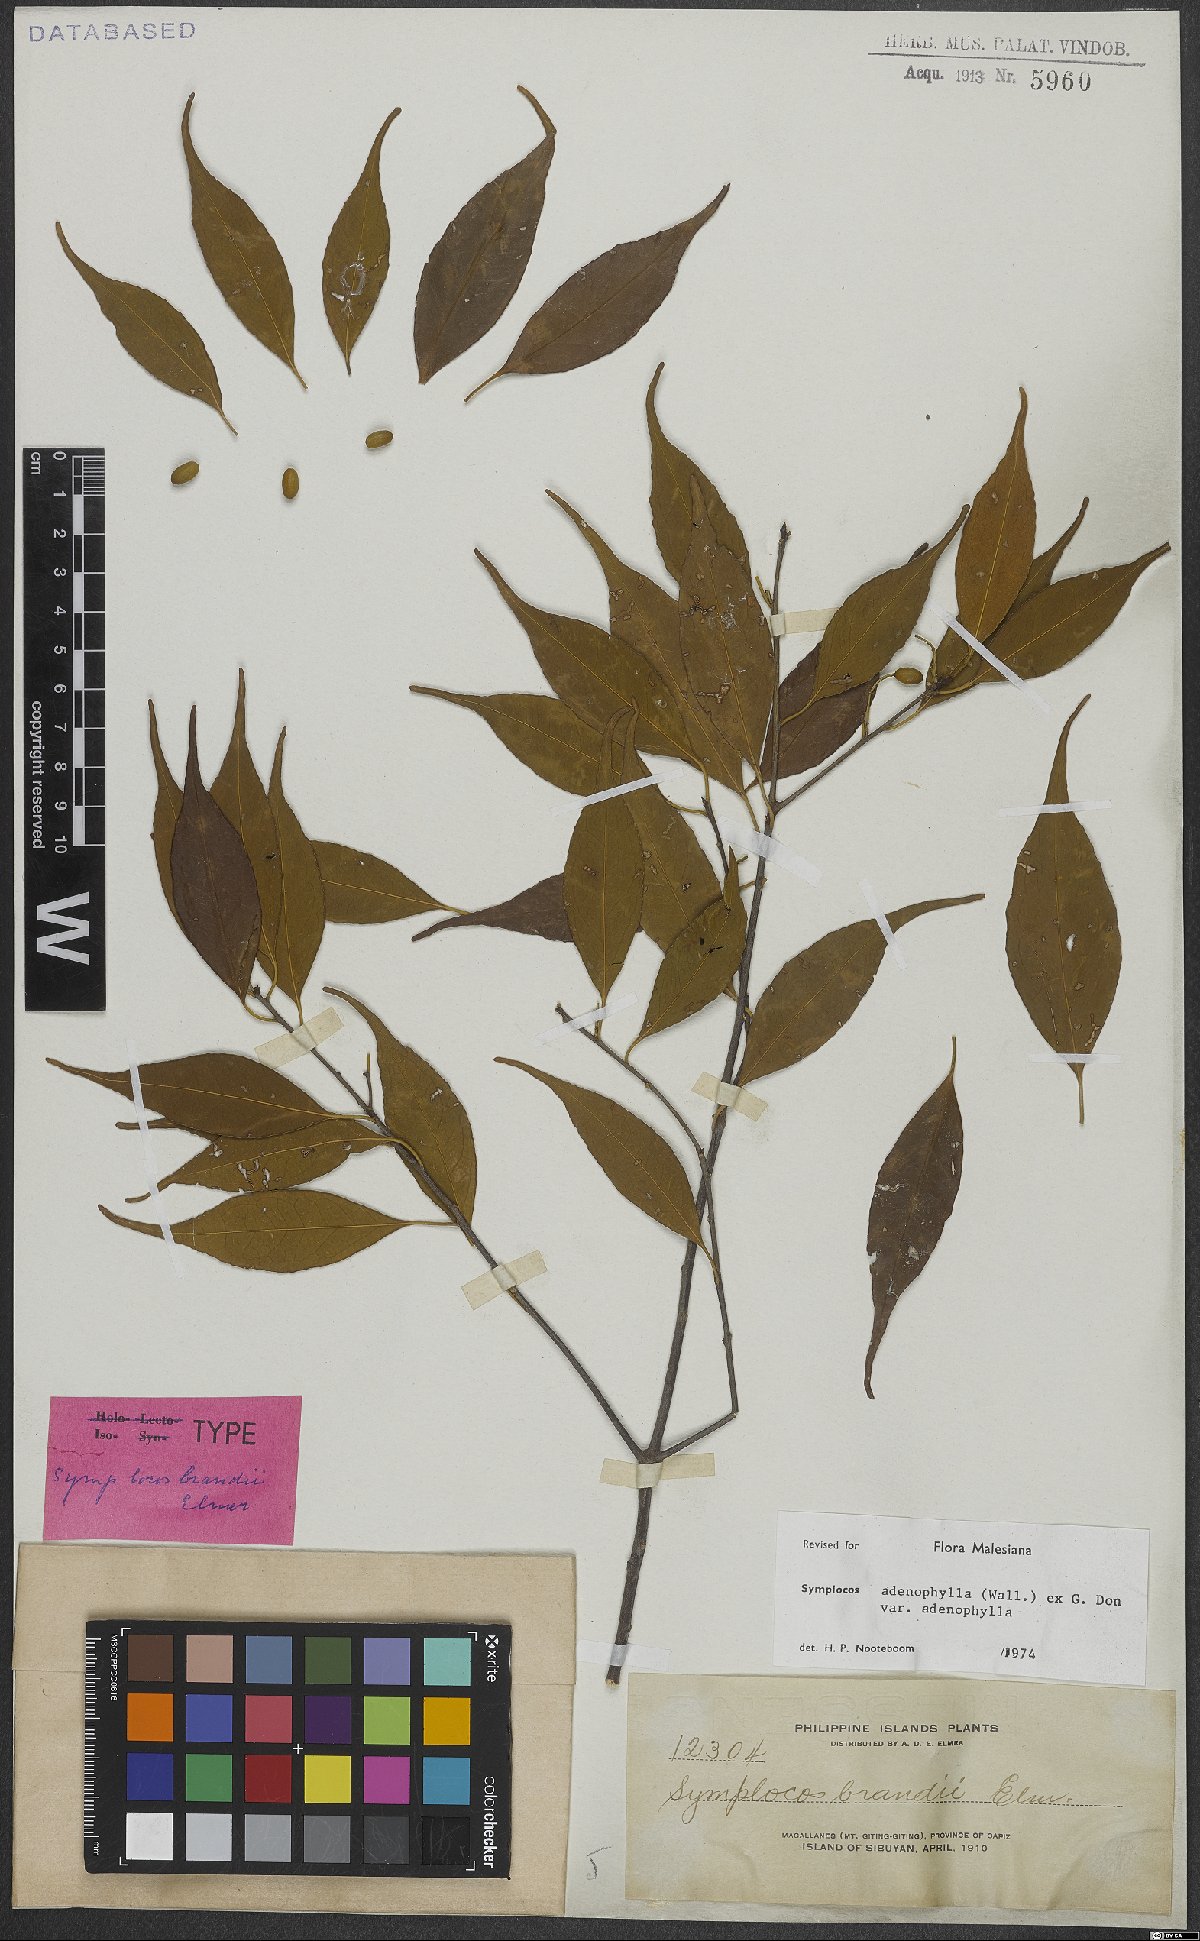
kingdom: Plantae
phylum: Tracheophyta
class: Magnoliopsida
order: Ericales
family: Symplocaceae
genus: Symplocos
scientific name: Symplocos adenophylla
